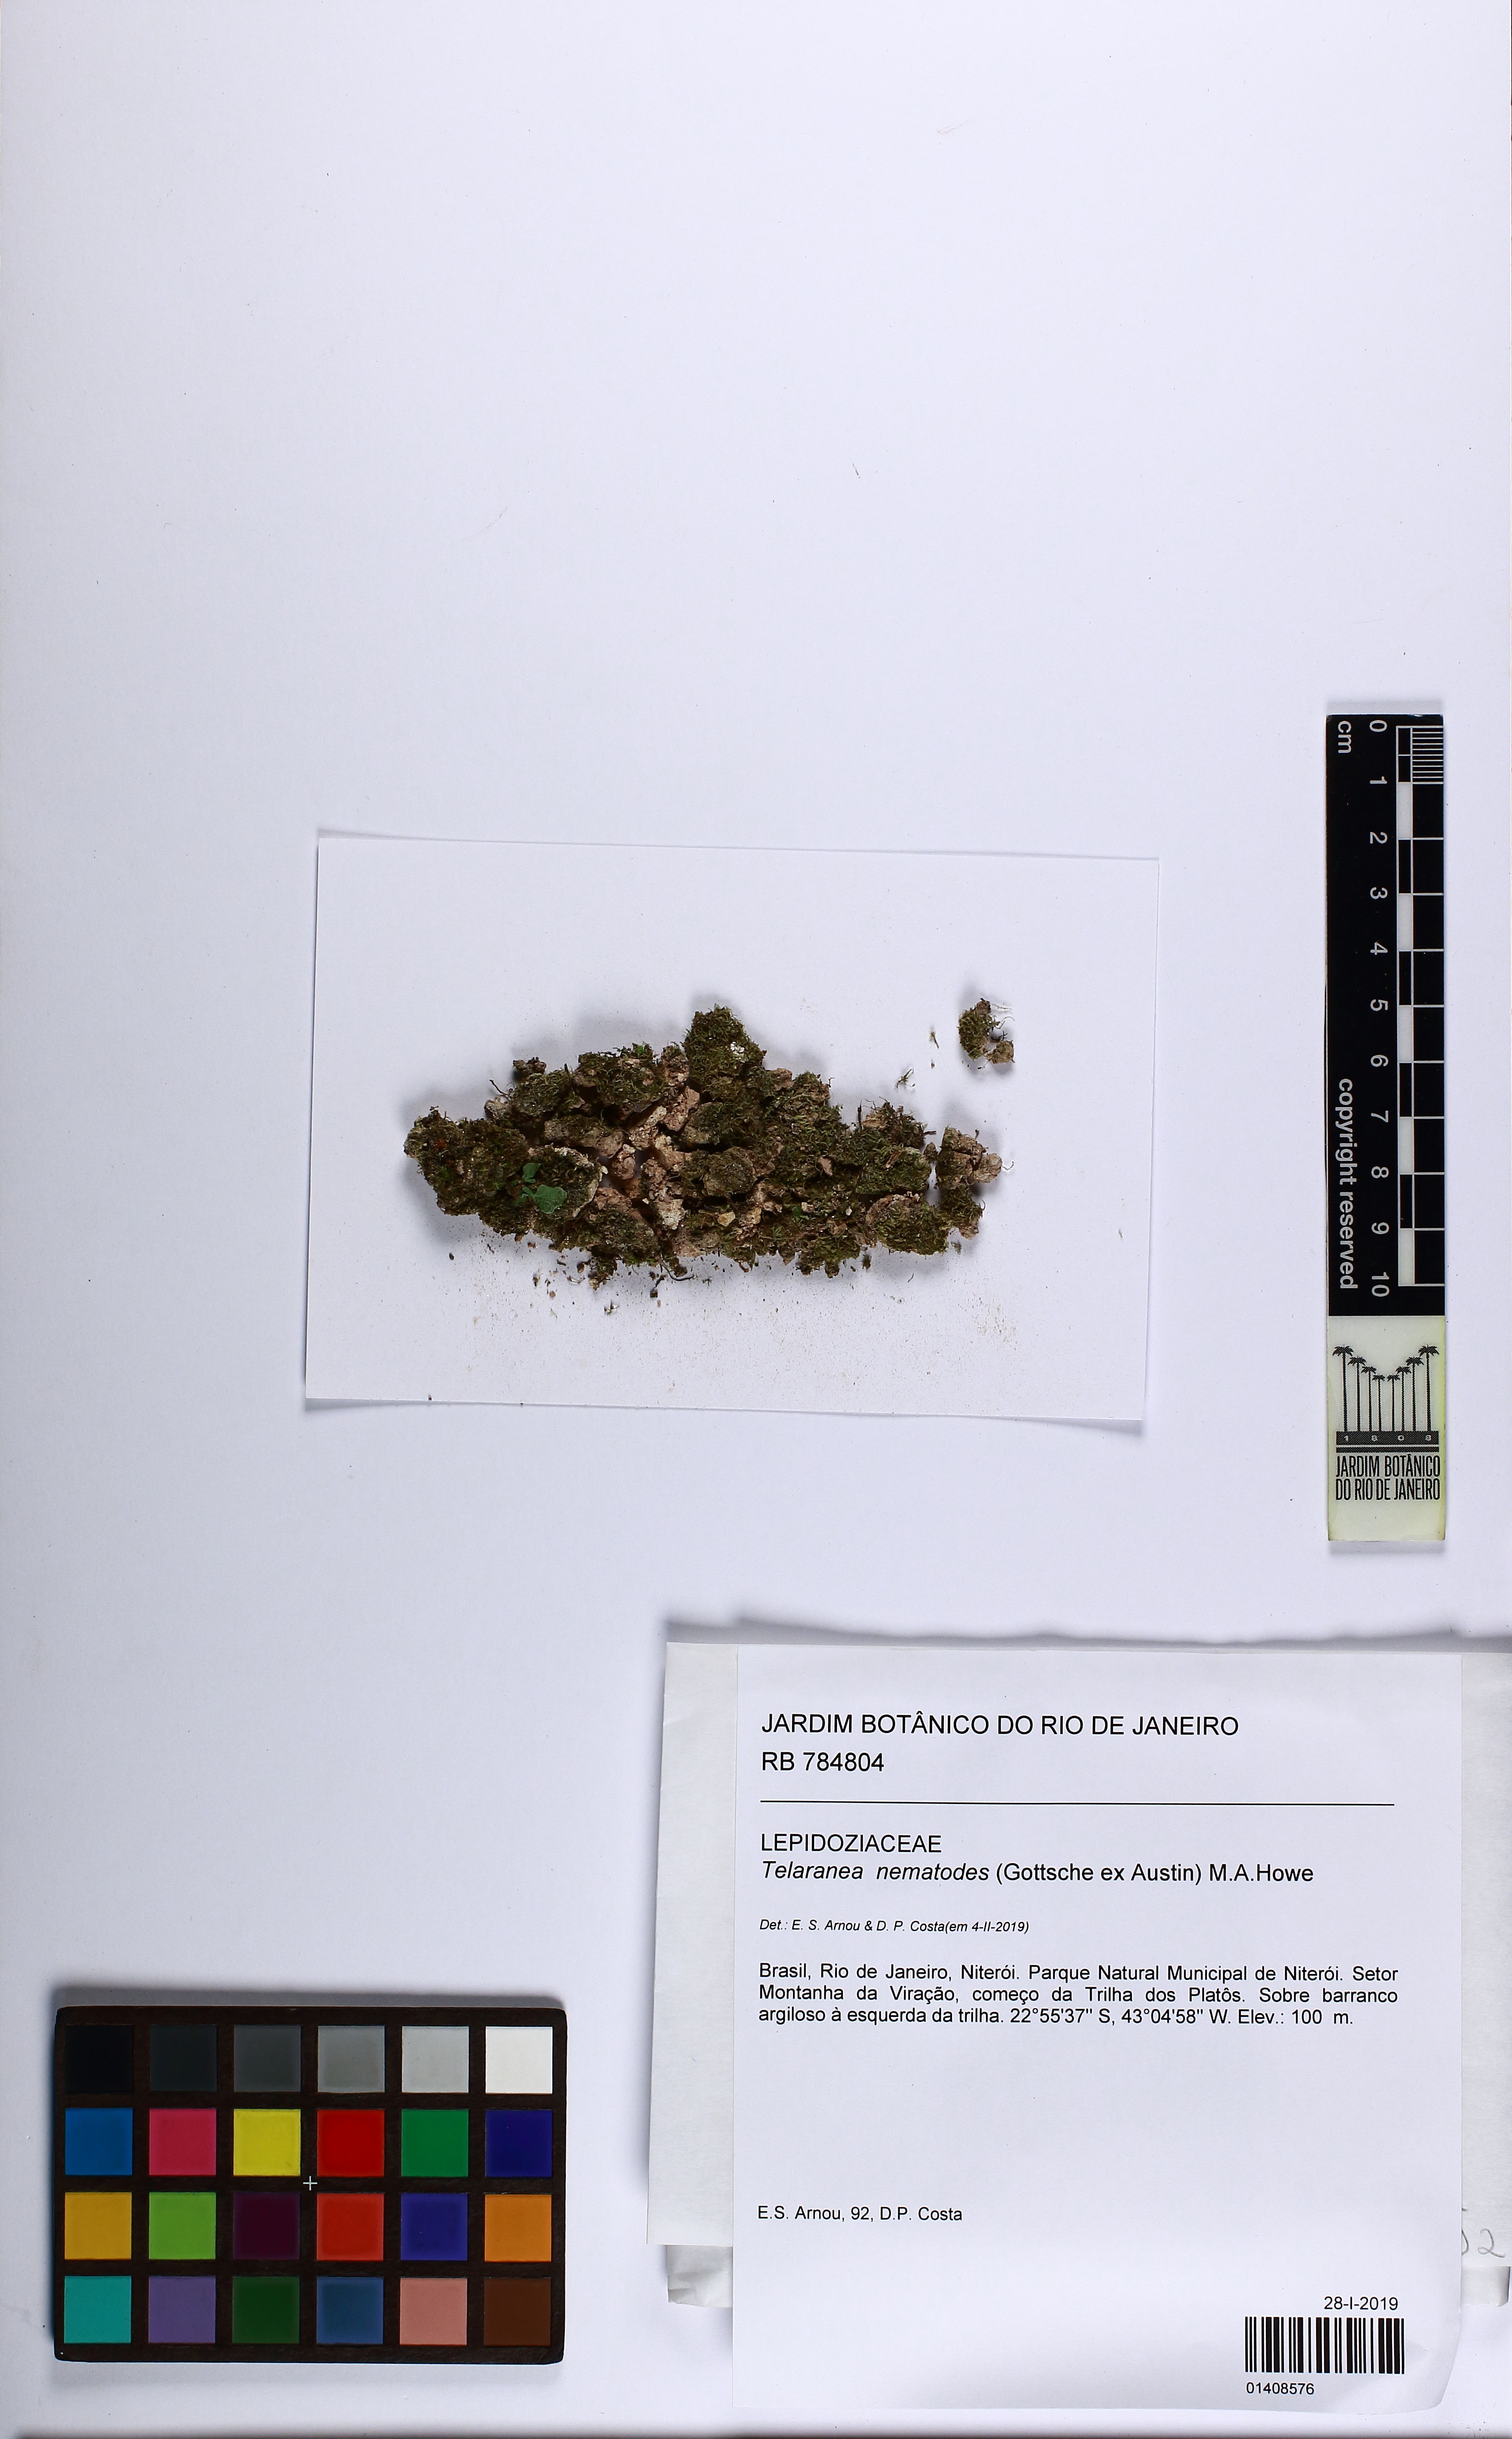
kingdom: Plantae
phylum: Marchantiophyta
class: Jungermanniopsida
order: Jungermanniales
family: Lepidoziaceae
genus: Telaranea
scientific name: Telaranea nematodes
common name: Irish threadwort
